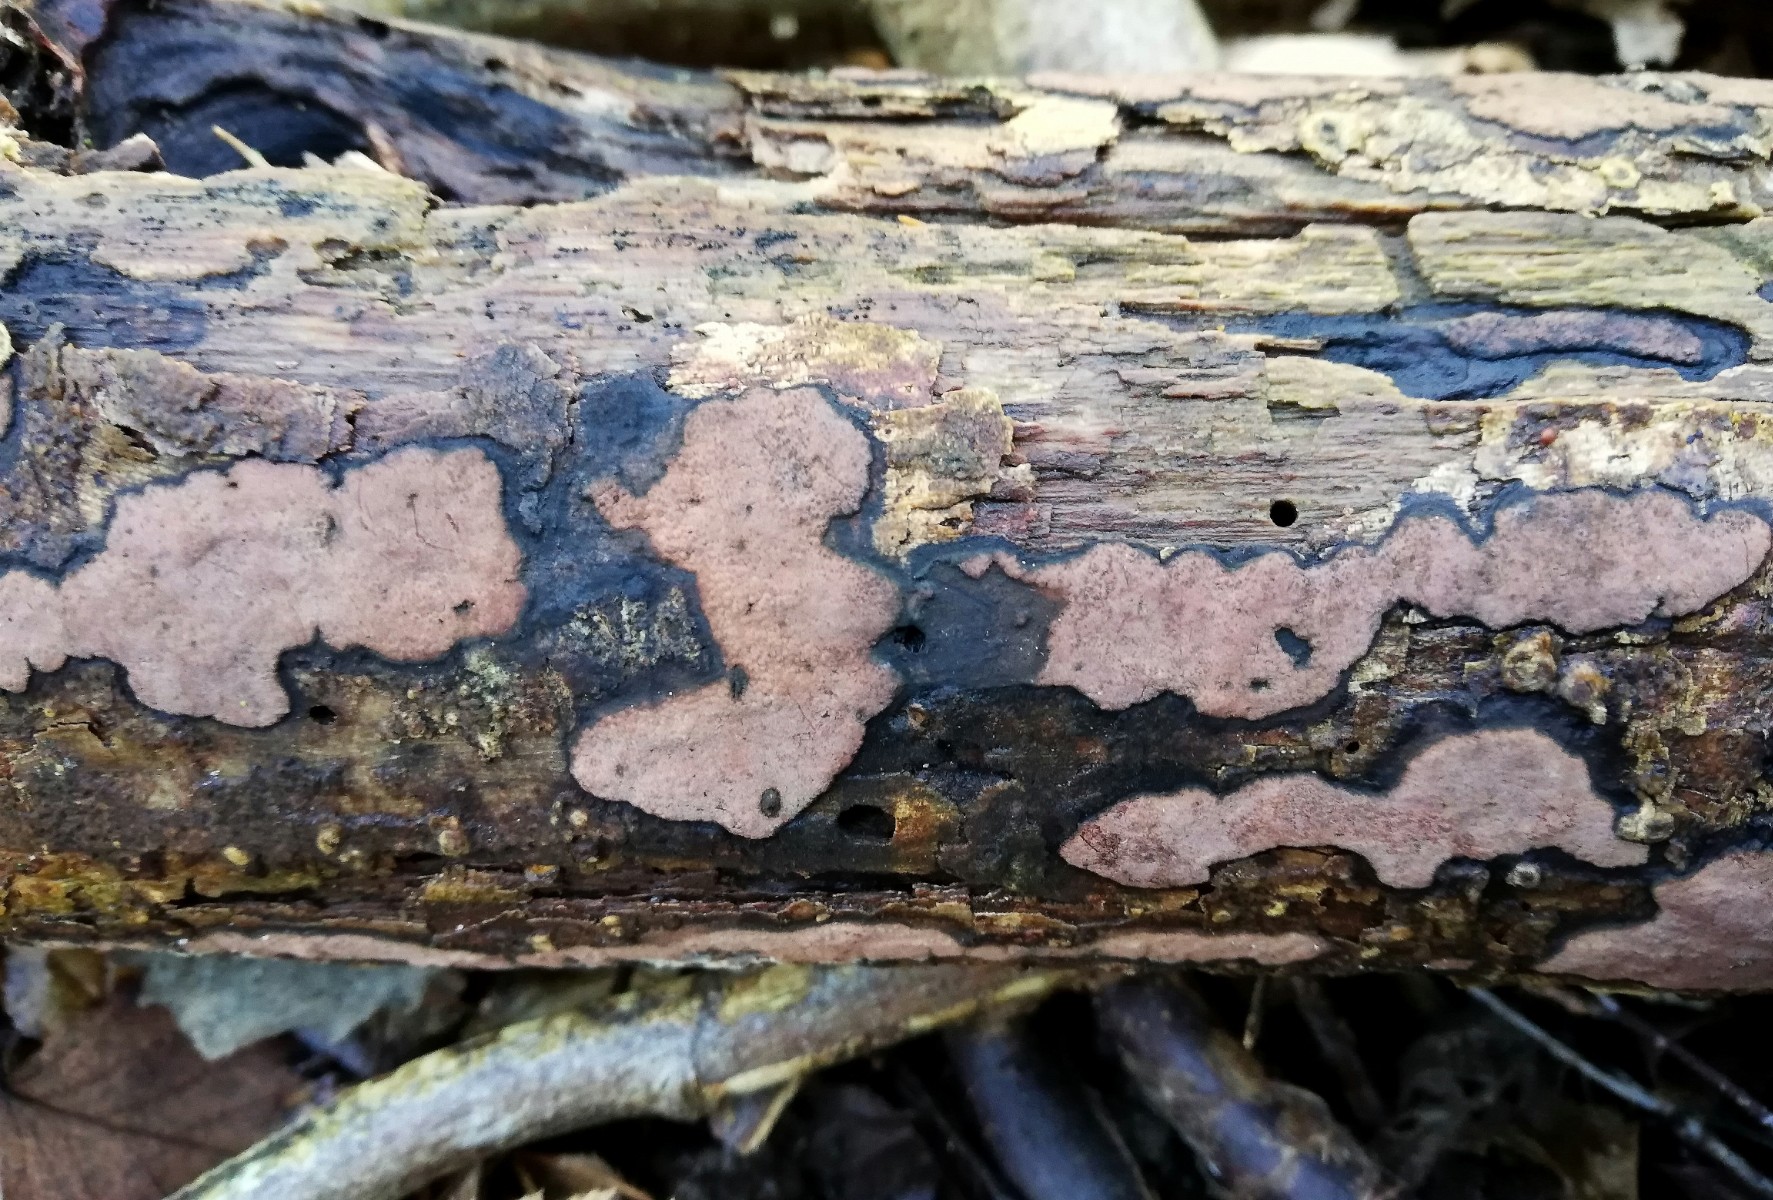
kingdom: Fungi
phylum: Basidiomycota
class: Agaricomycetes
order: Russulales
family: Peniophoraceae
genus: Peniophora
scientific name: Peniophora limitata
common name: mørkrandet voksskind
